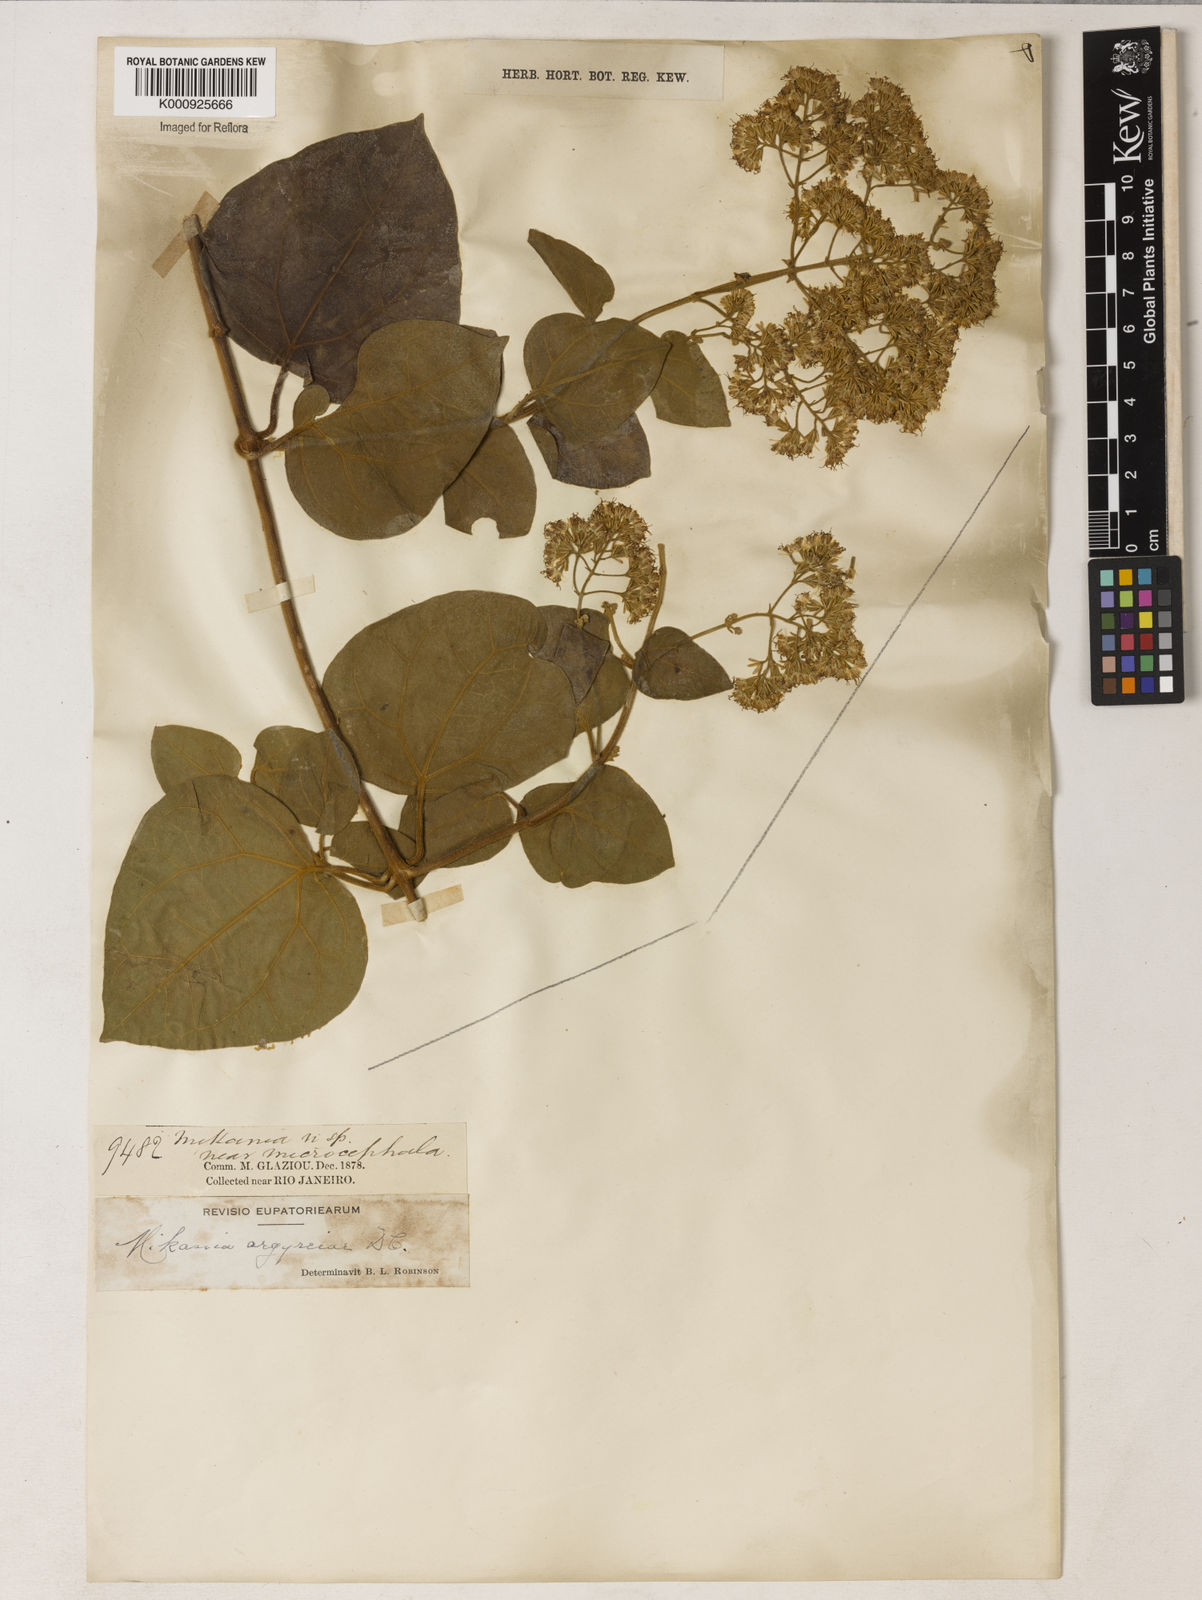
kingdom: Plantae
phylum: Tracheophyta
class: Magnoliopsida
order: Asterales
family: Asteraceae
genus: Mikania
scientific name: Mikania campos-portoana
